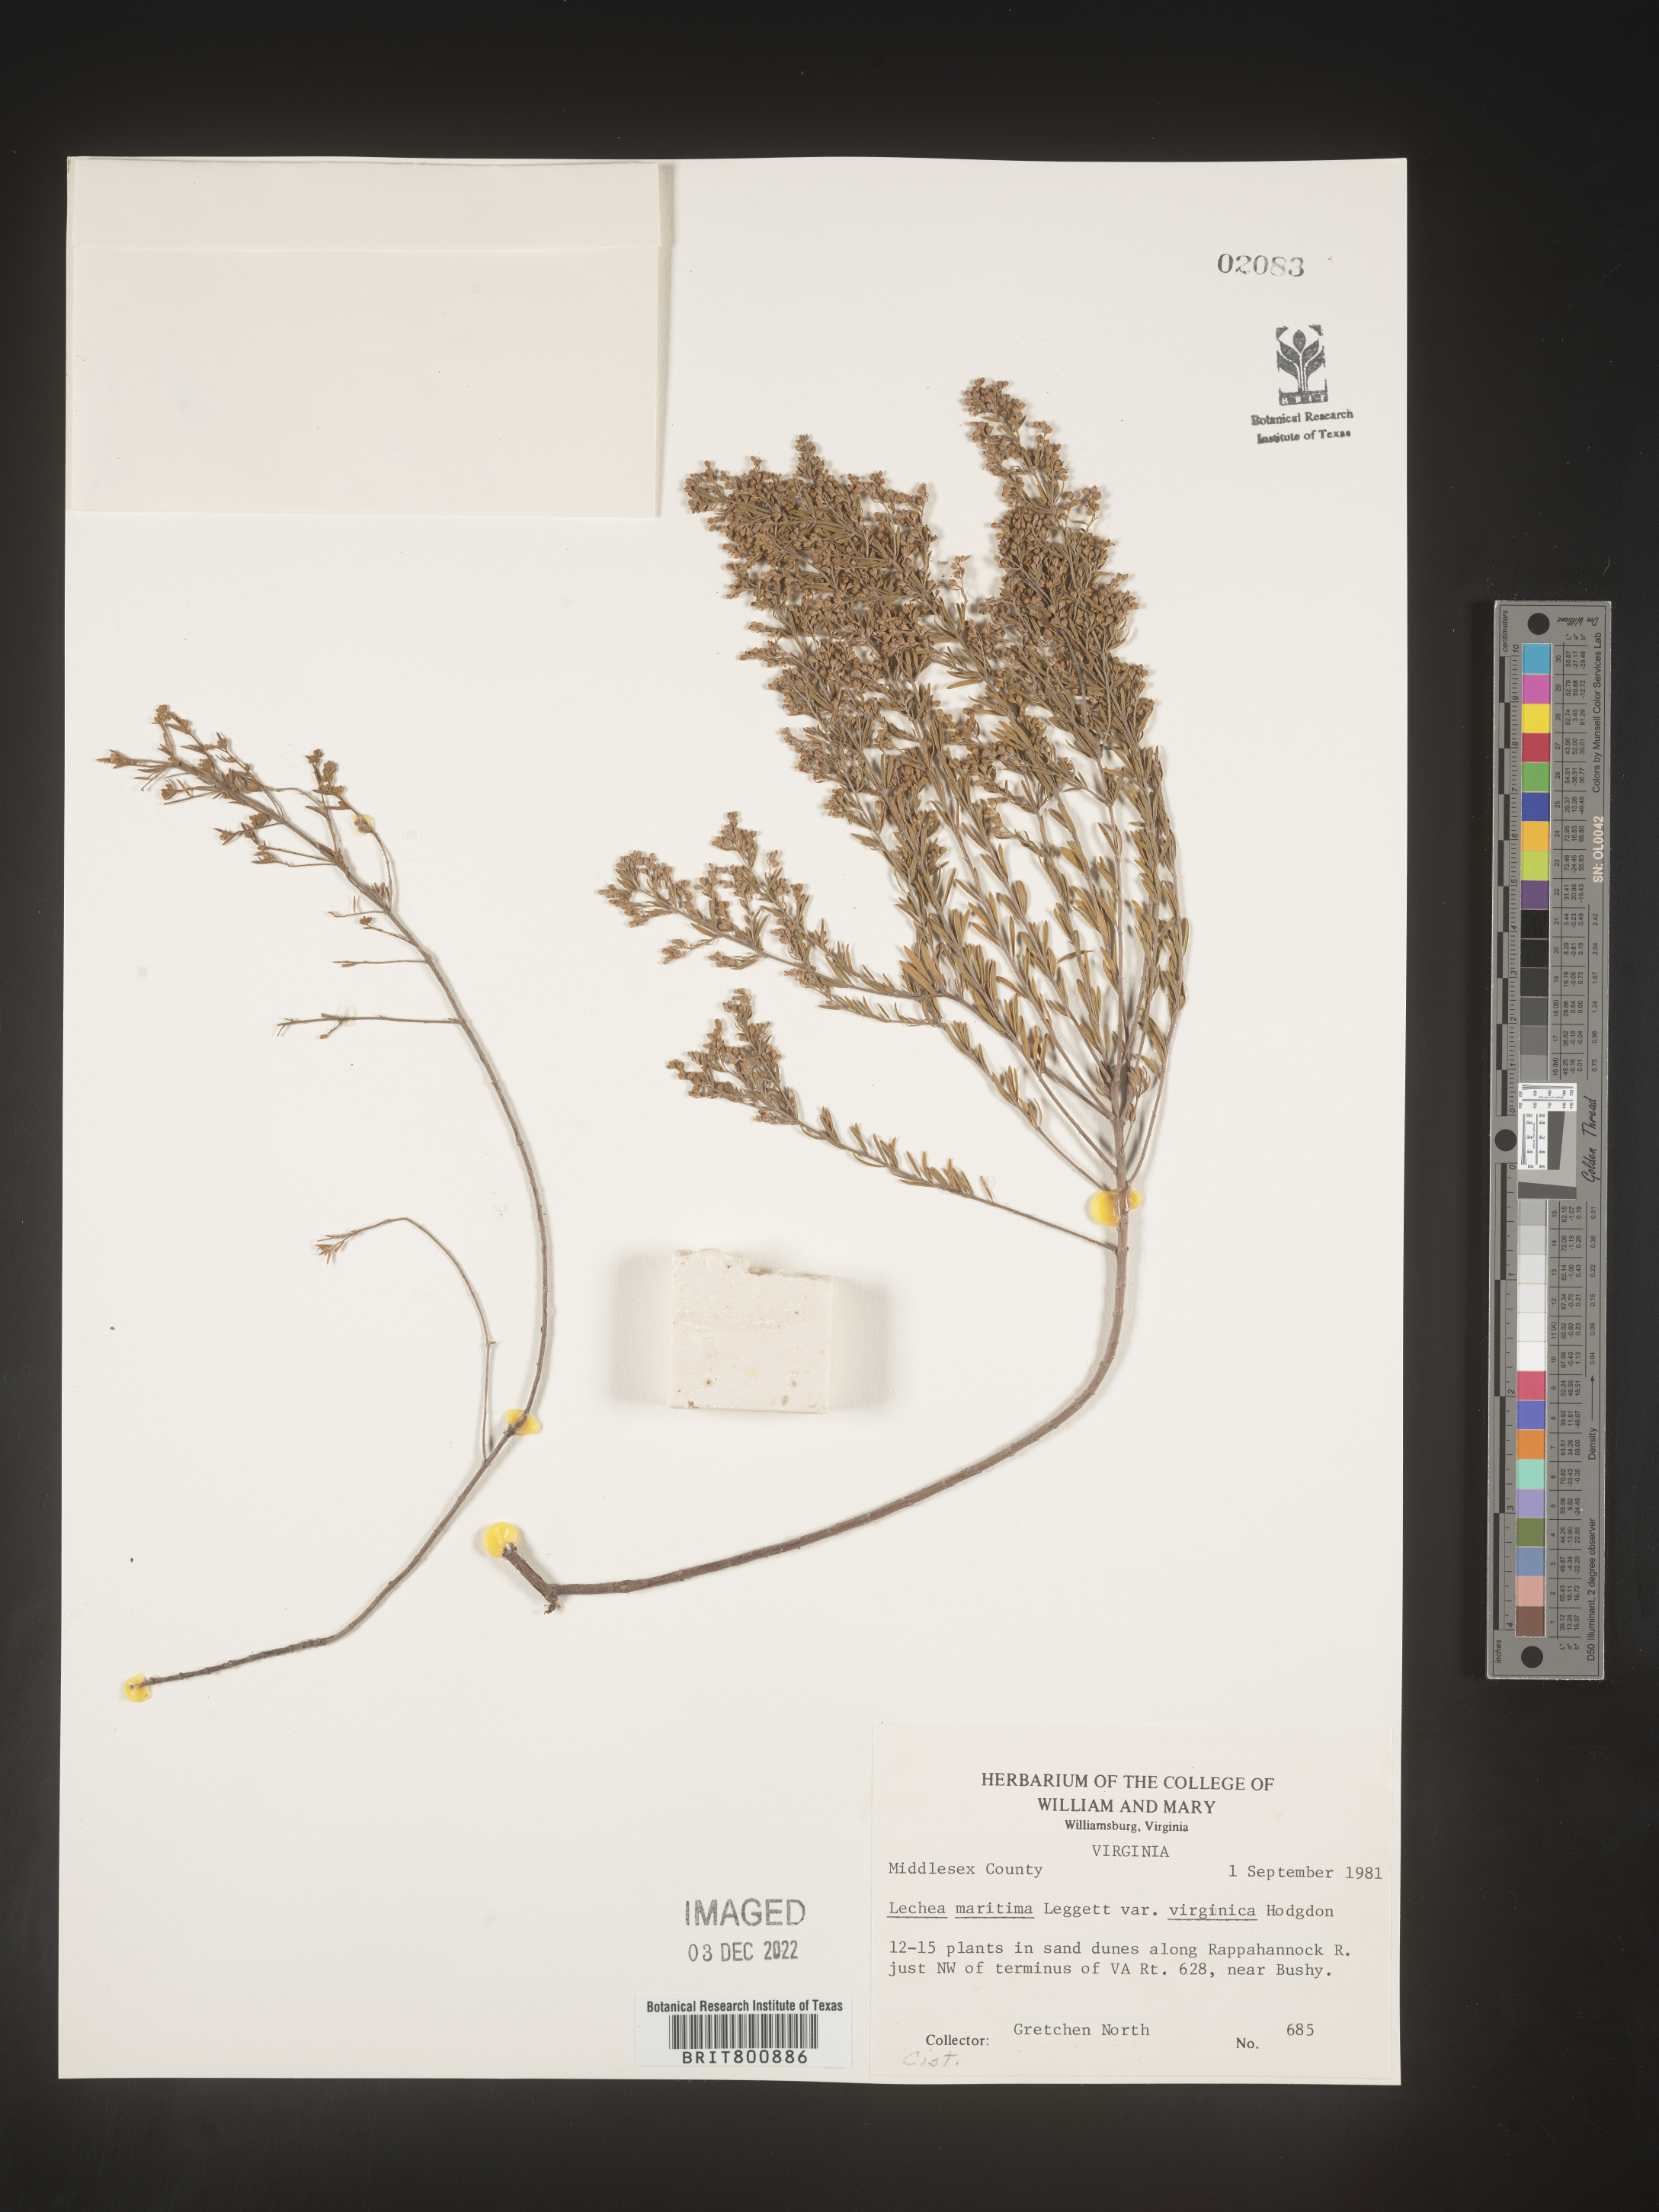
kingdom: Plantae
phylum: Tracheophyta
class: Magnoliopsida
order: Malvales
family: Cistaceae
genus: Lechea
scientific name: Lechea maritima
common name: Beach pinweed
